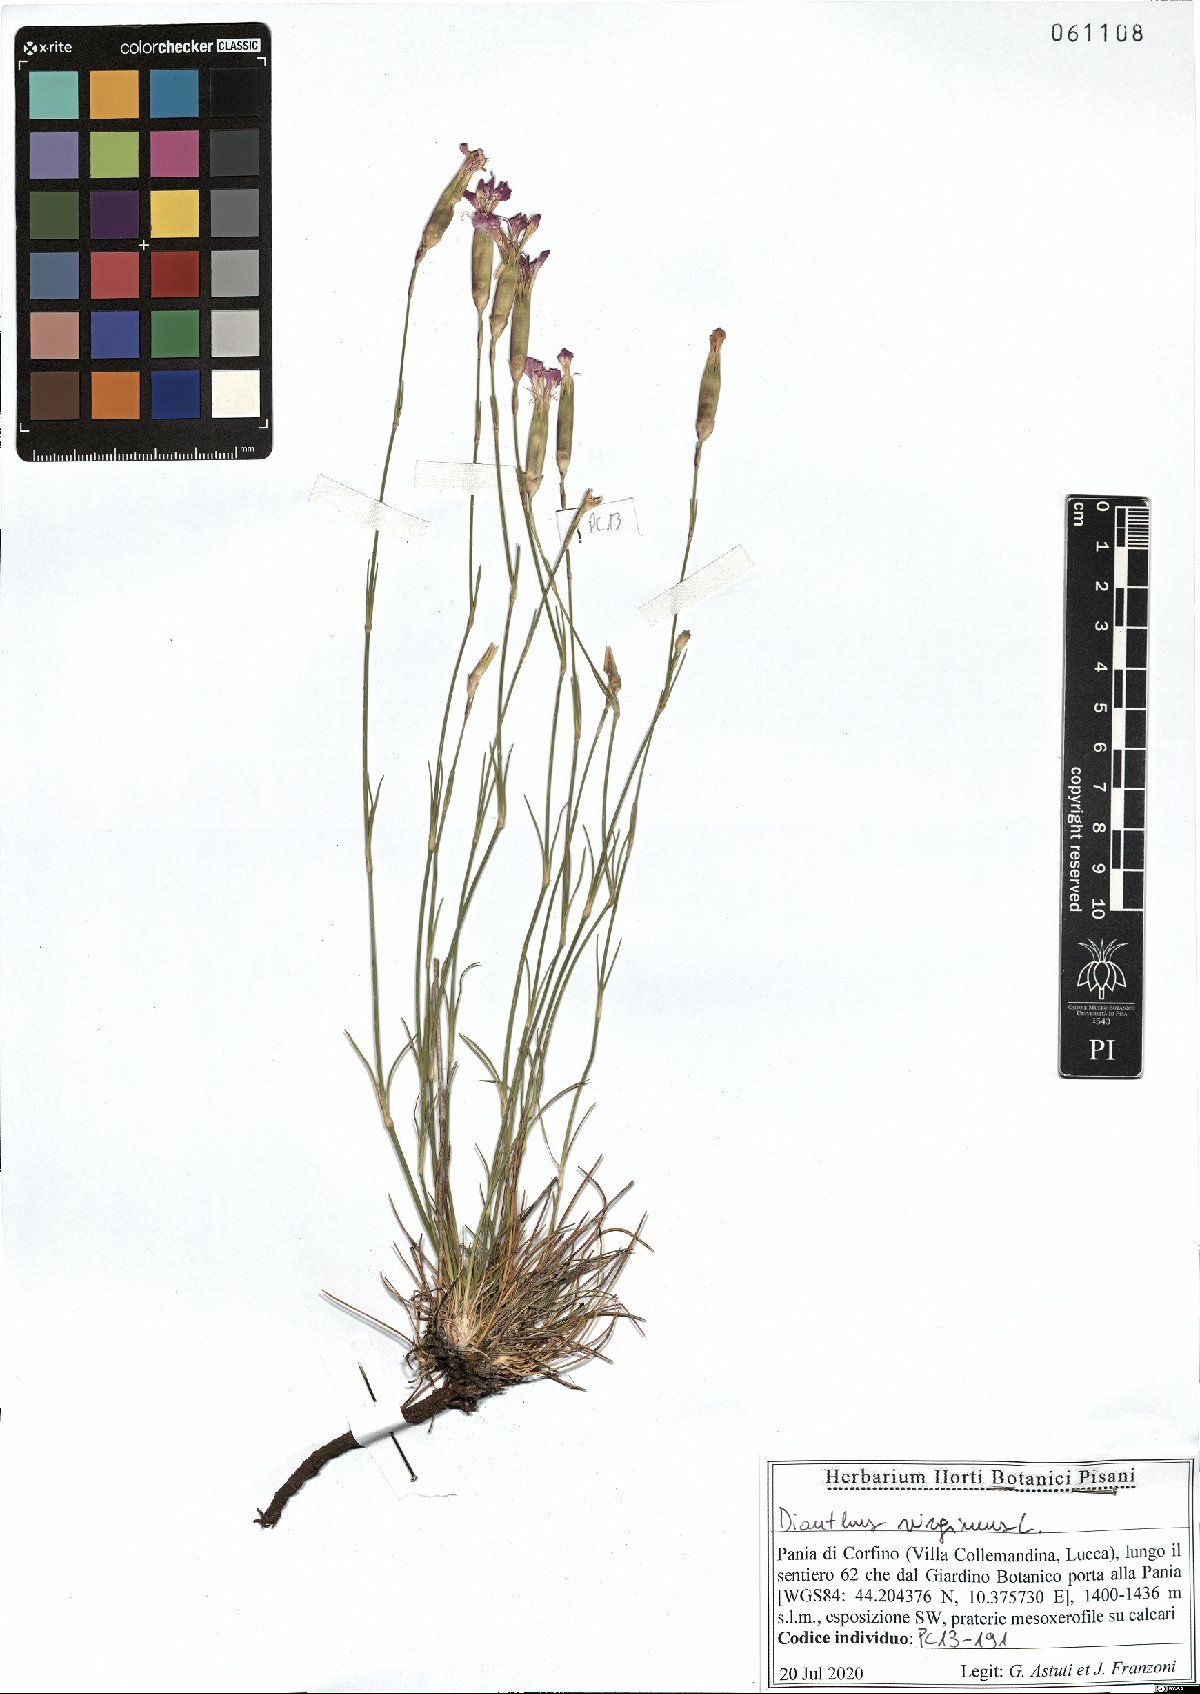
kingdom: Plantae
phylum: Tracheophyta
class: Magnoliopsida
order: Caryophyllales
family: Caryophyllaceae
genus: Dianthus
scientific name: Dianthus virgineus
